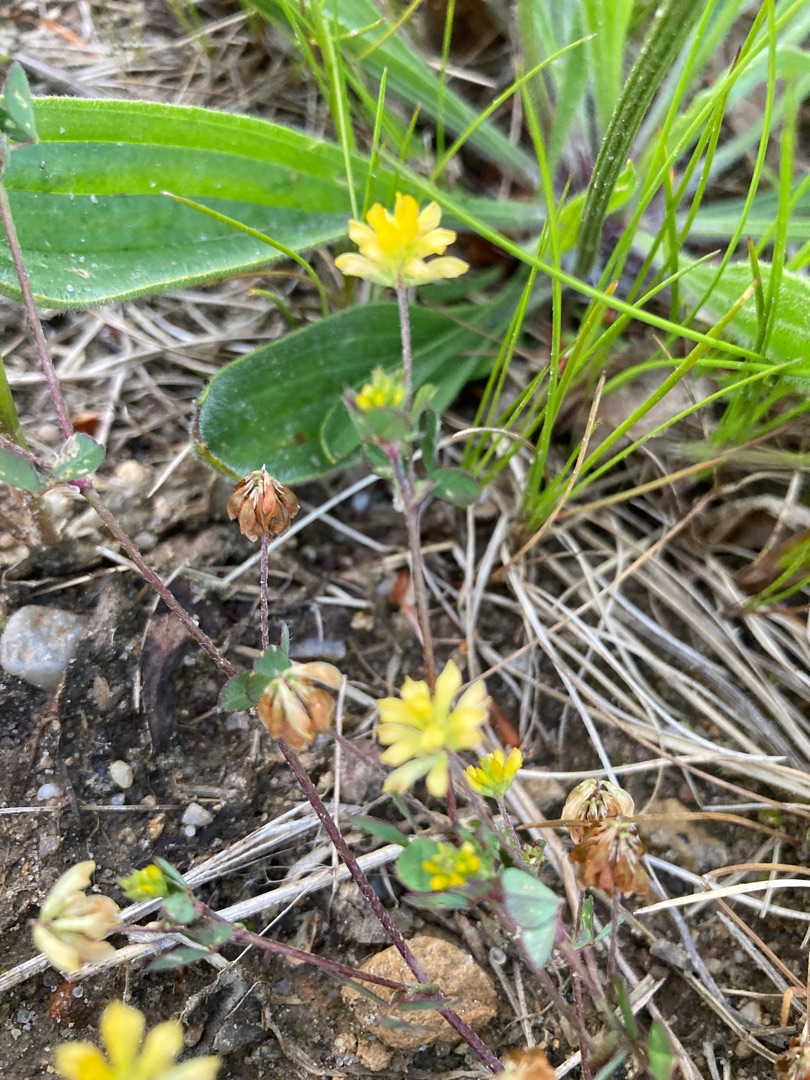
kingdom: Plantae
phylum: Tracheophyta
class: Magnoliopsida
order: Fabales
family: Fabaceae
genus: Trifolium
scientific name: Trifolium dubium
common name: Fin kløver
